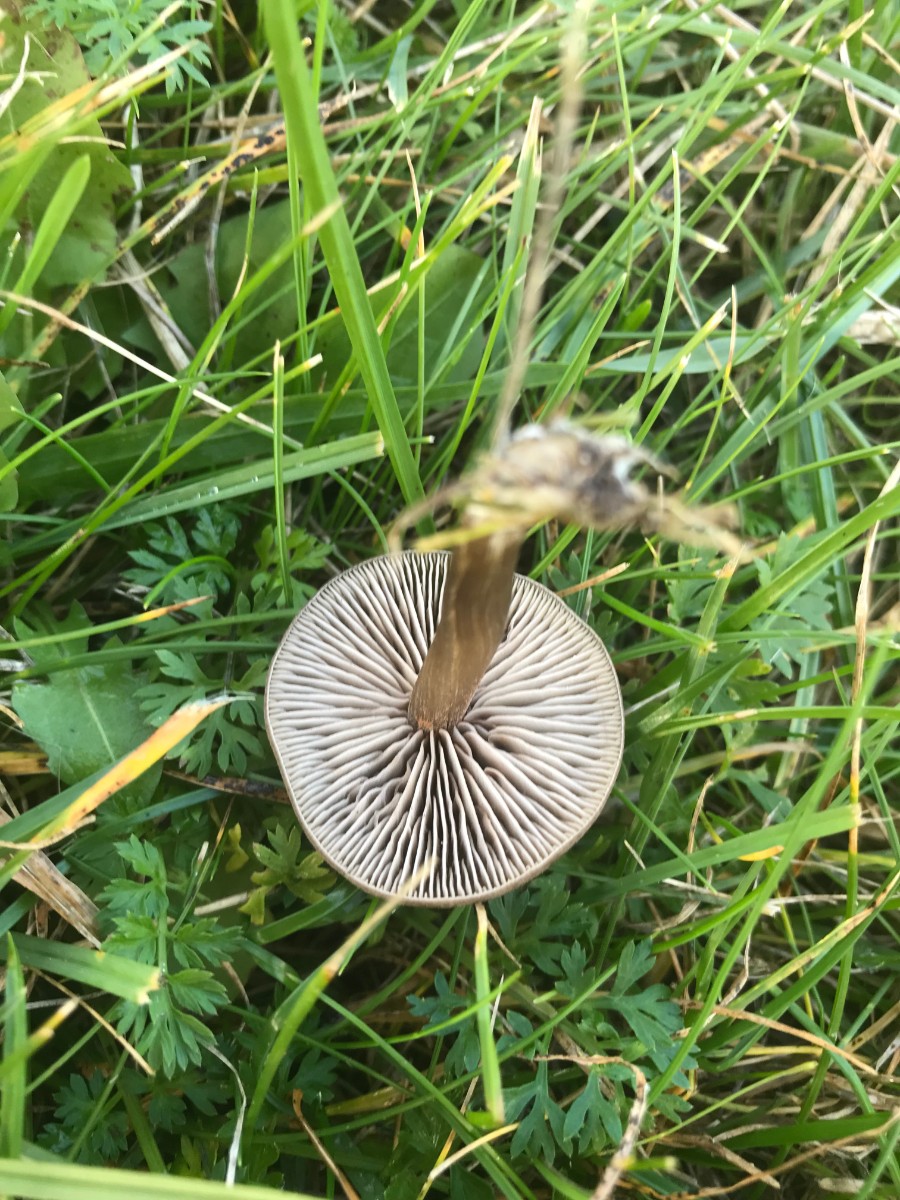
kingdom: Fungi
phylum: Basidiomycota
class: Agaricomycetes
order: Agaricales
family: Entolomataceae
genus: Entoloma
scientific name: Entoloma sericeum
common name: silkeglinsende rødblad
